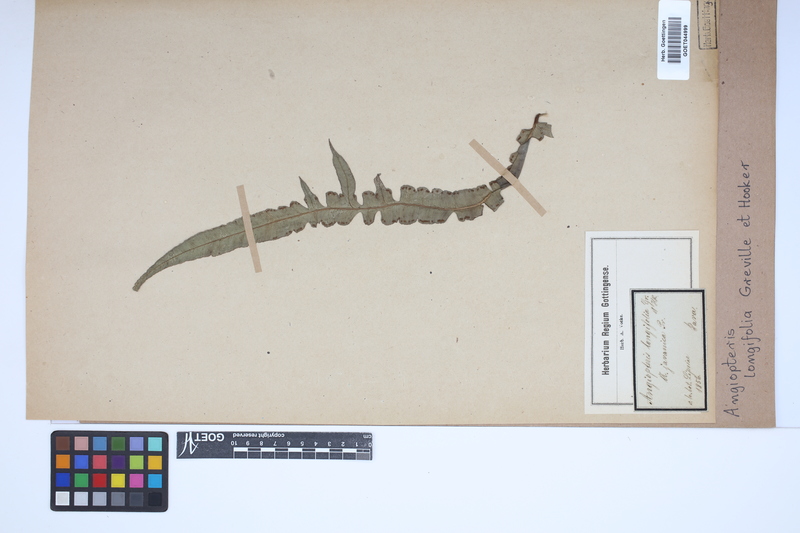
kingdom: Plantae
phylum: Tracheophyta
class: Polypodiopsida
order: Marattiales
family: Marattiaceae
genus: Angiopteris
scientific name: Angiopteris evecta
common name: Mule's-foot fern
